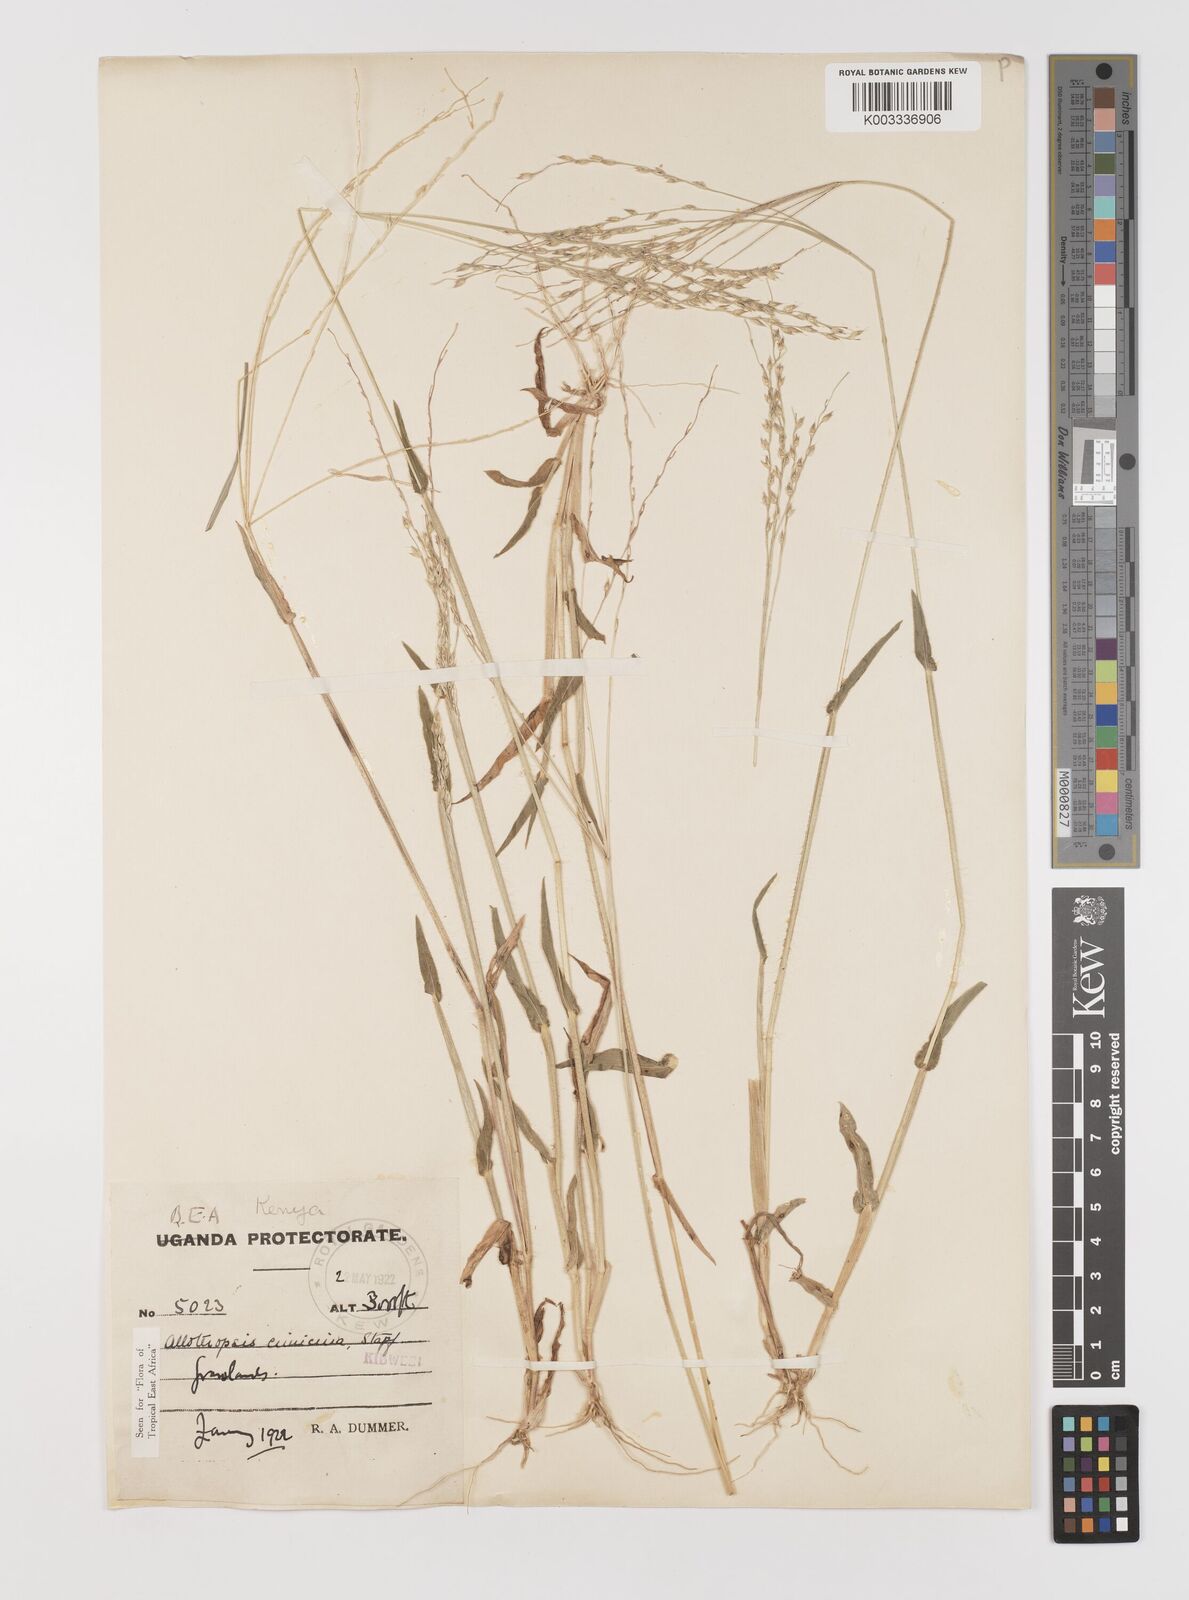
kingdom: Plantae
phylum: Tracheophyta
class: Liliopsida
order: Poales
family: Poaceae
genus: Alloteropsis
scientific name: Alloteropsis cimicina
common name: Summergrass
